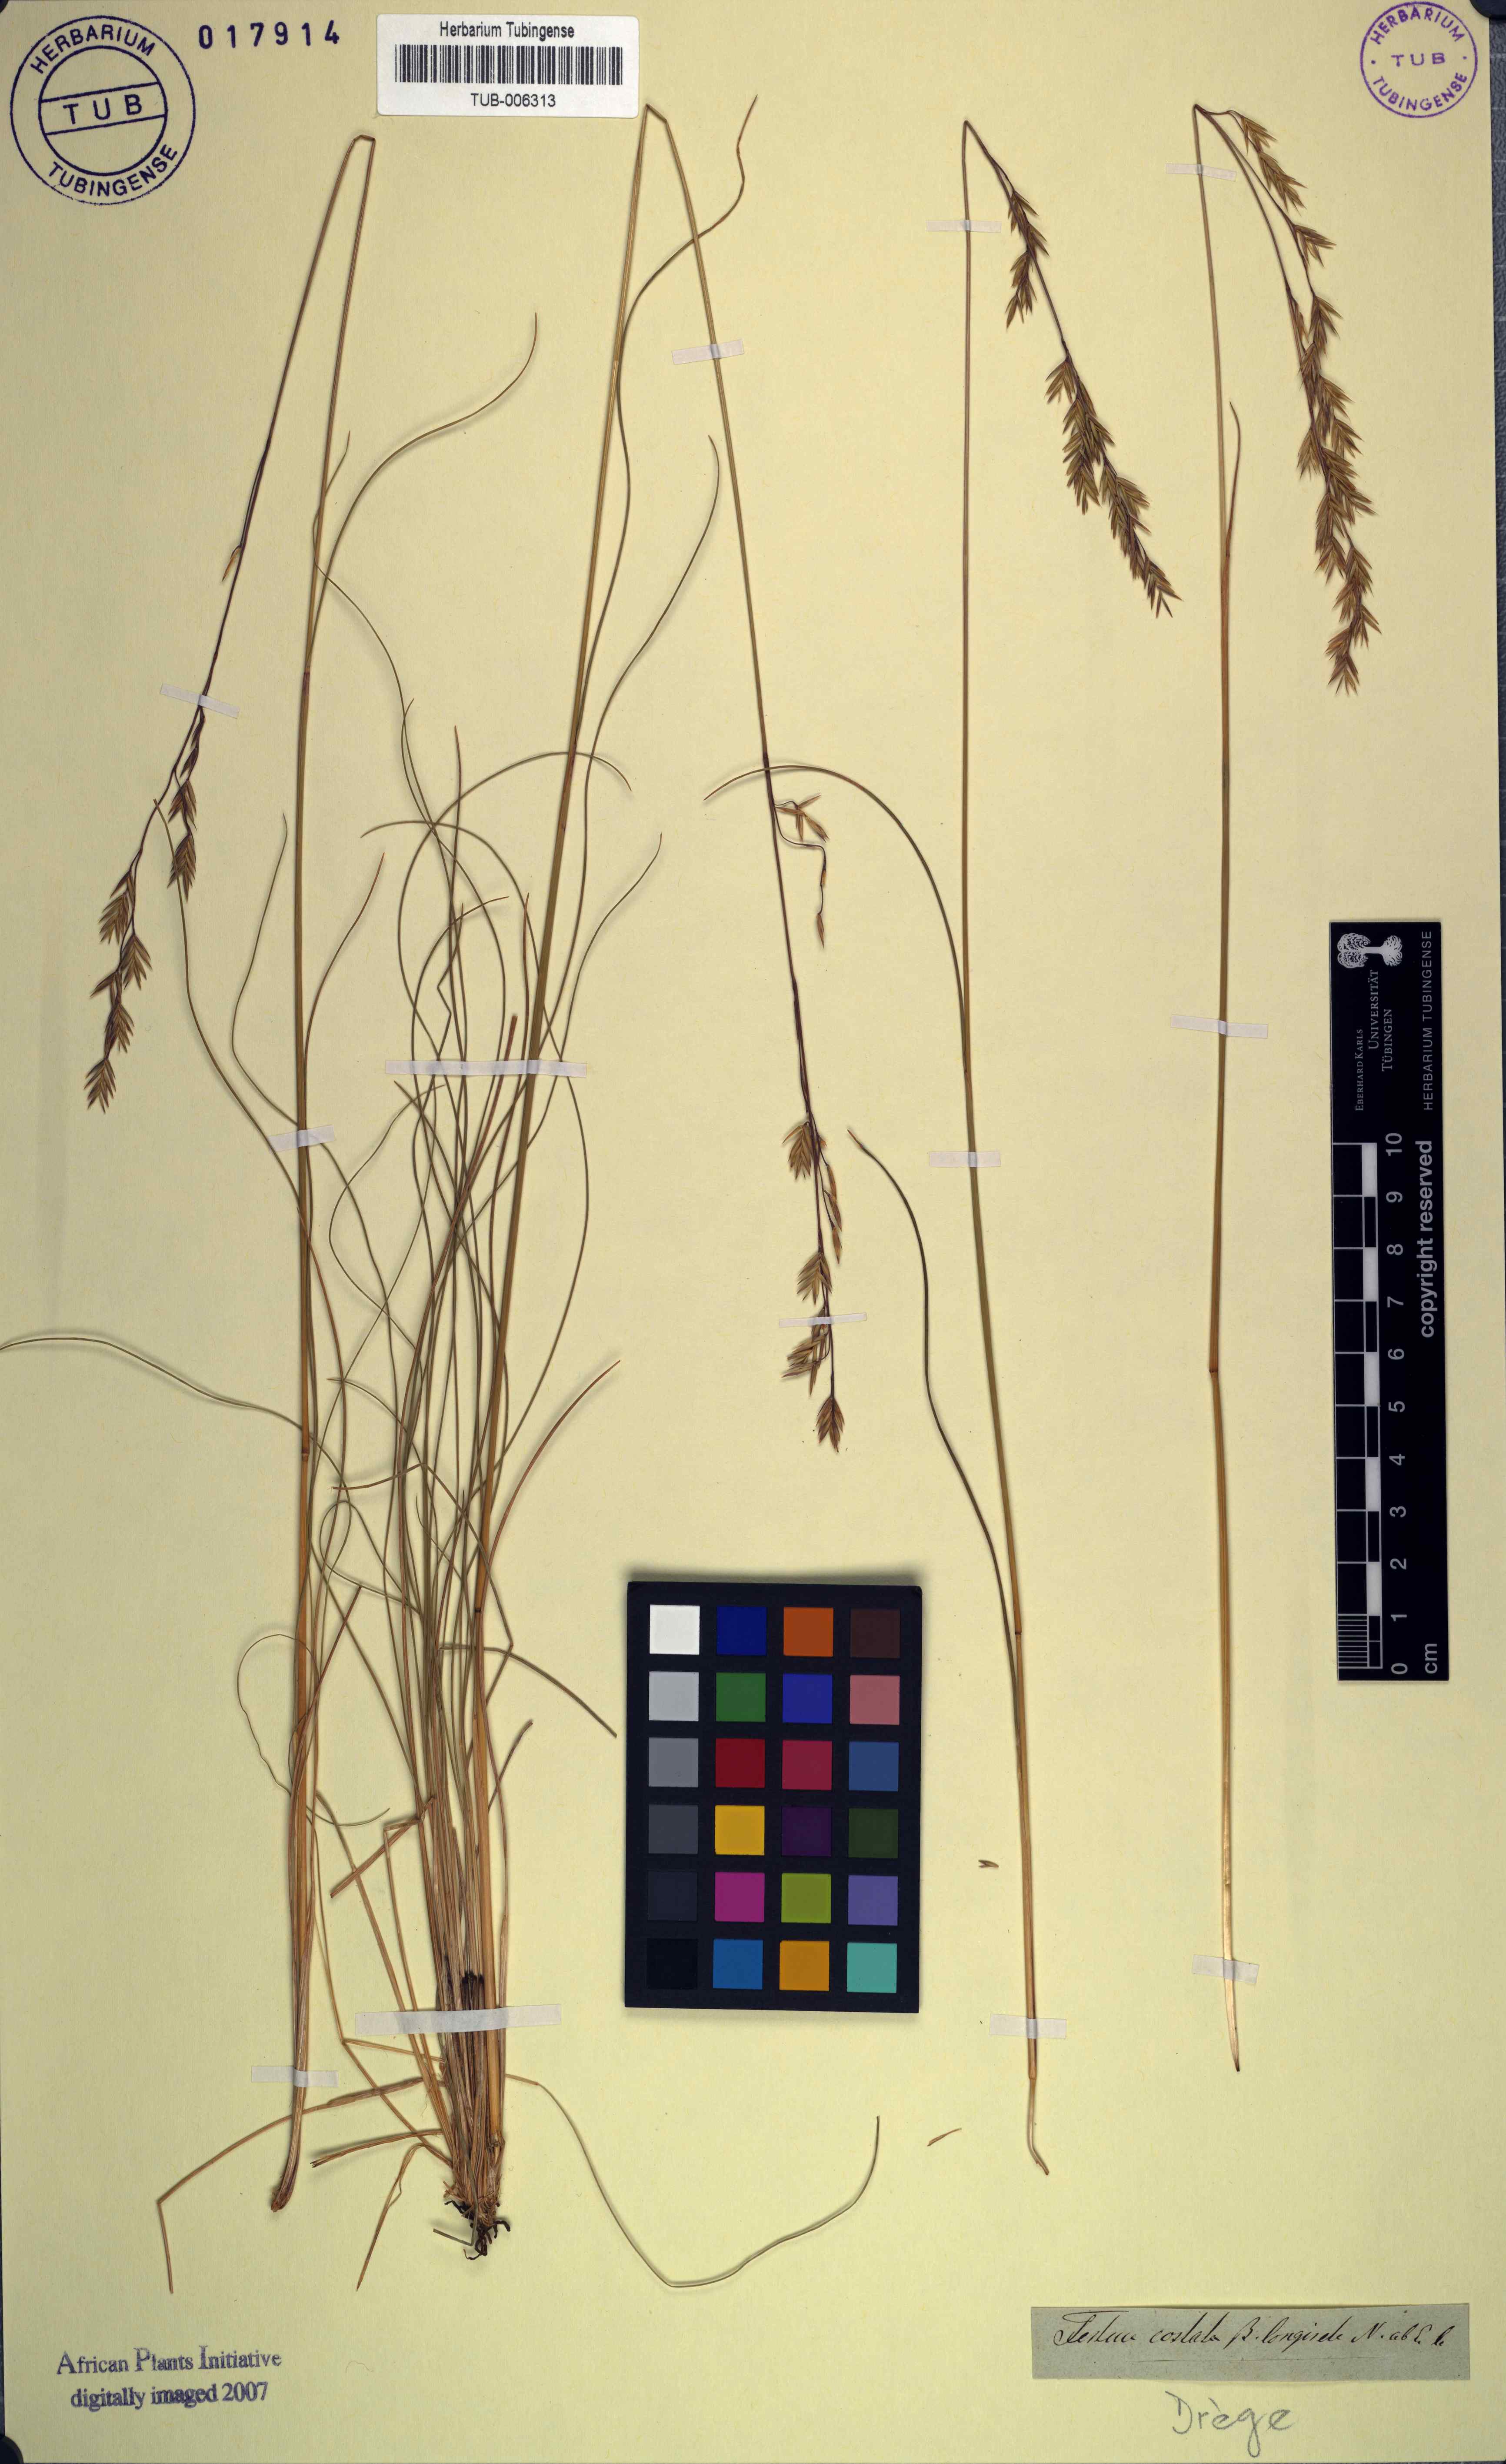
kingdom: Plantae
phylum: Tracheophyta
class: Liliopsida
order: Poales
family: Poaceae
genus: Festuca
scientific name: Festuca costata
